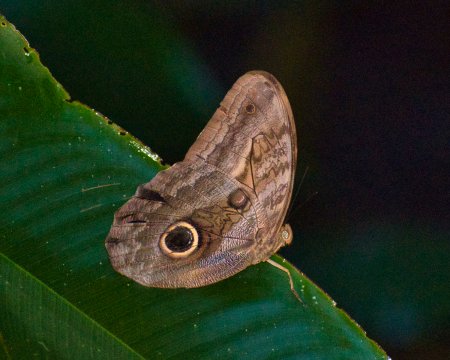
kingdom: Animalia
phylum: Arthropoda
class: Insecta
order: Lepidoptera
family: Nymphalidae
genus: Caligo
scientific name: Caligo oedipus
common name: Fruhstorfer's Owl-Butterfly
